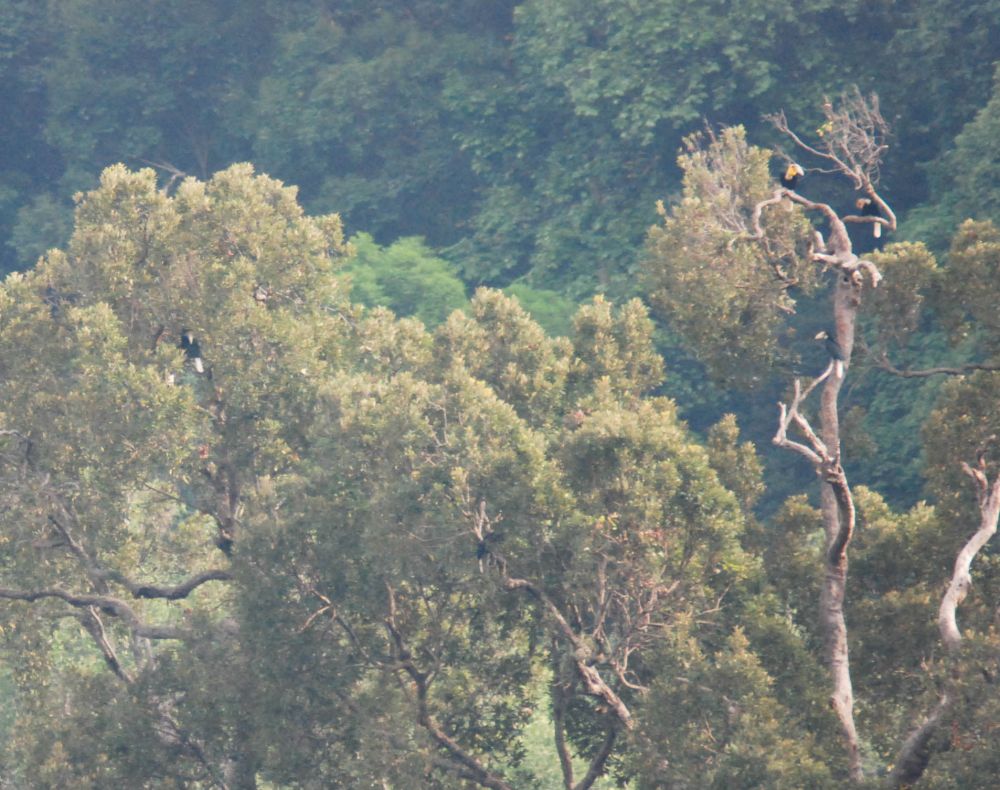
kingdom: Animalia
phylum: Chordata
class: Aves
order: Bucerotiformes
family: Bucerotidae
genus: Rhyticeros
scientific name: Rhyticeros undulatus
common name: Wreathed hornbill
